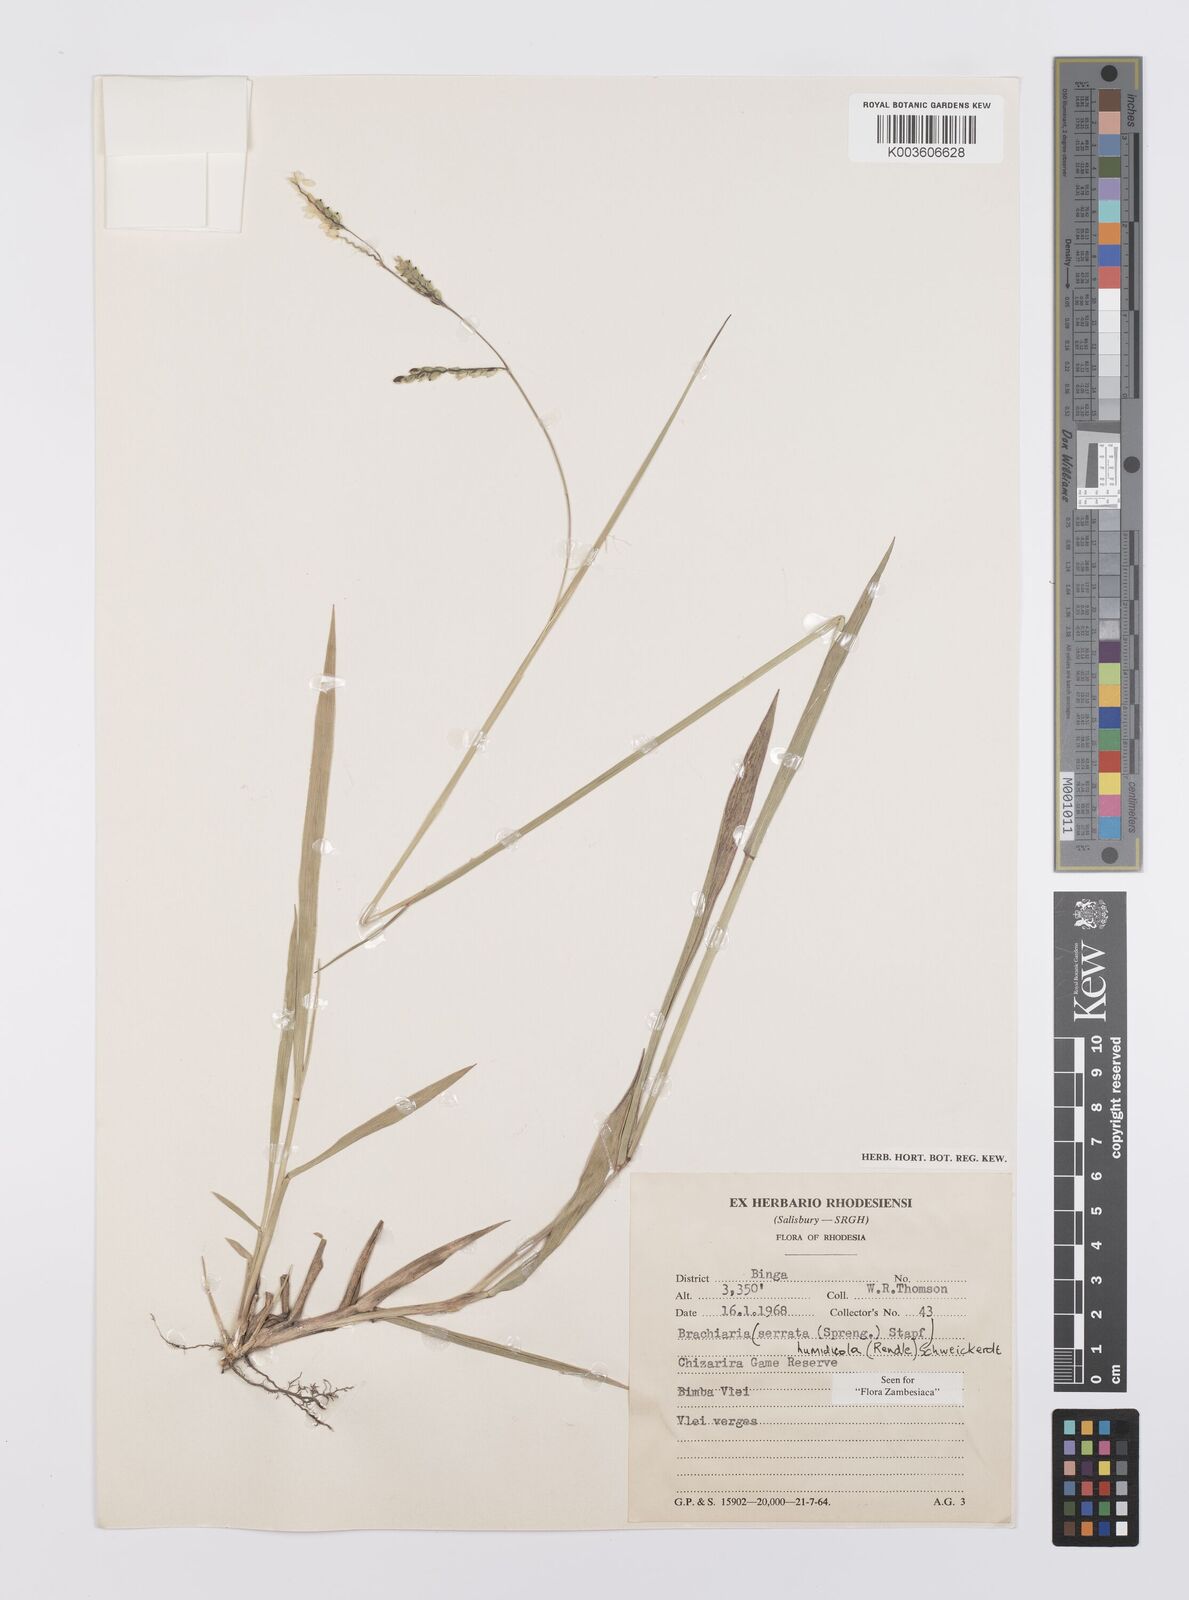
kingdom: Plantae
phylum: Tracheophyta
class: Liliopsida
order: Poales
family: Poaceae
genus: Urochloa
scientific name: Urochloa dictyoneura
